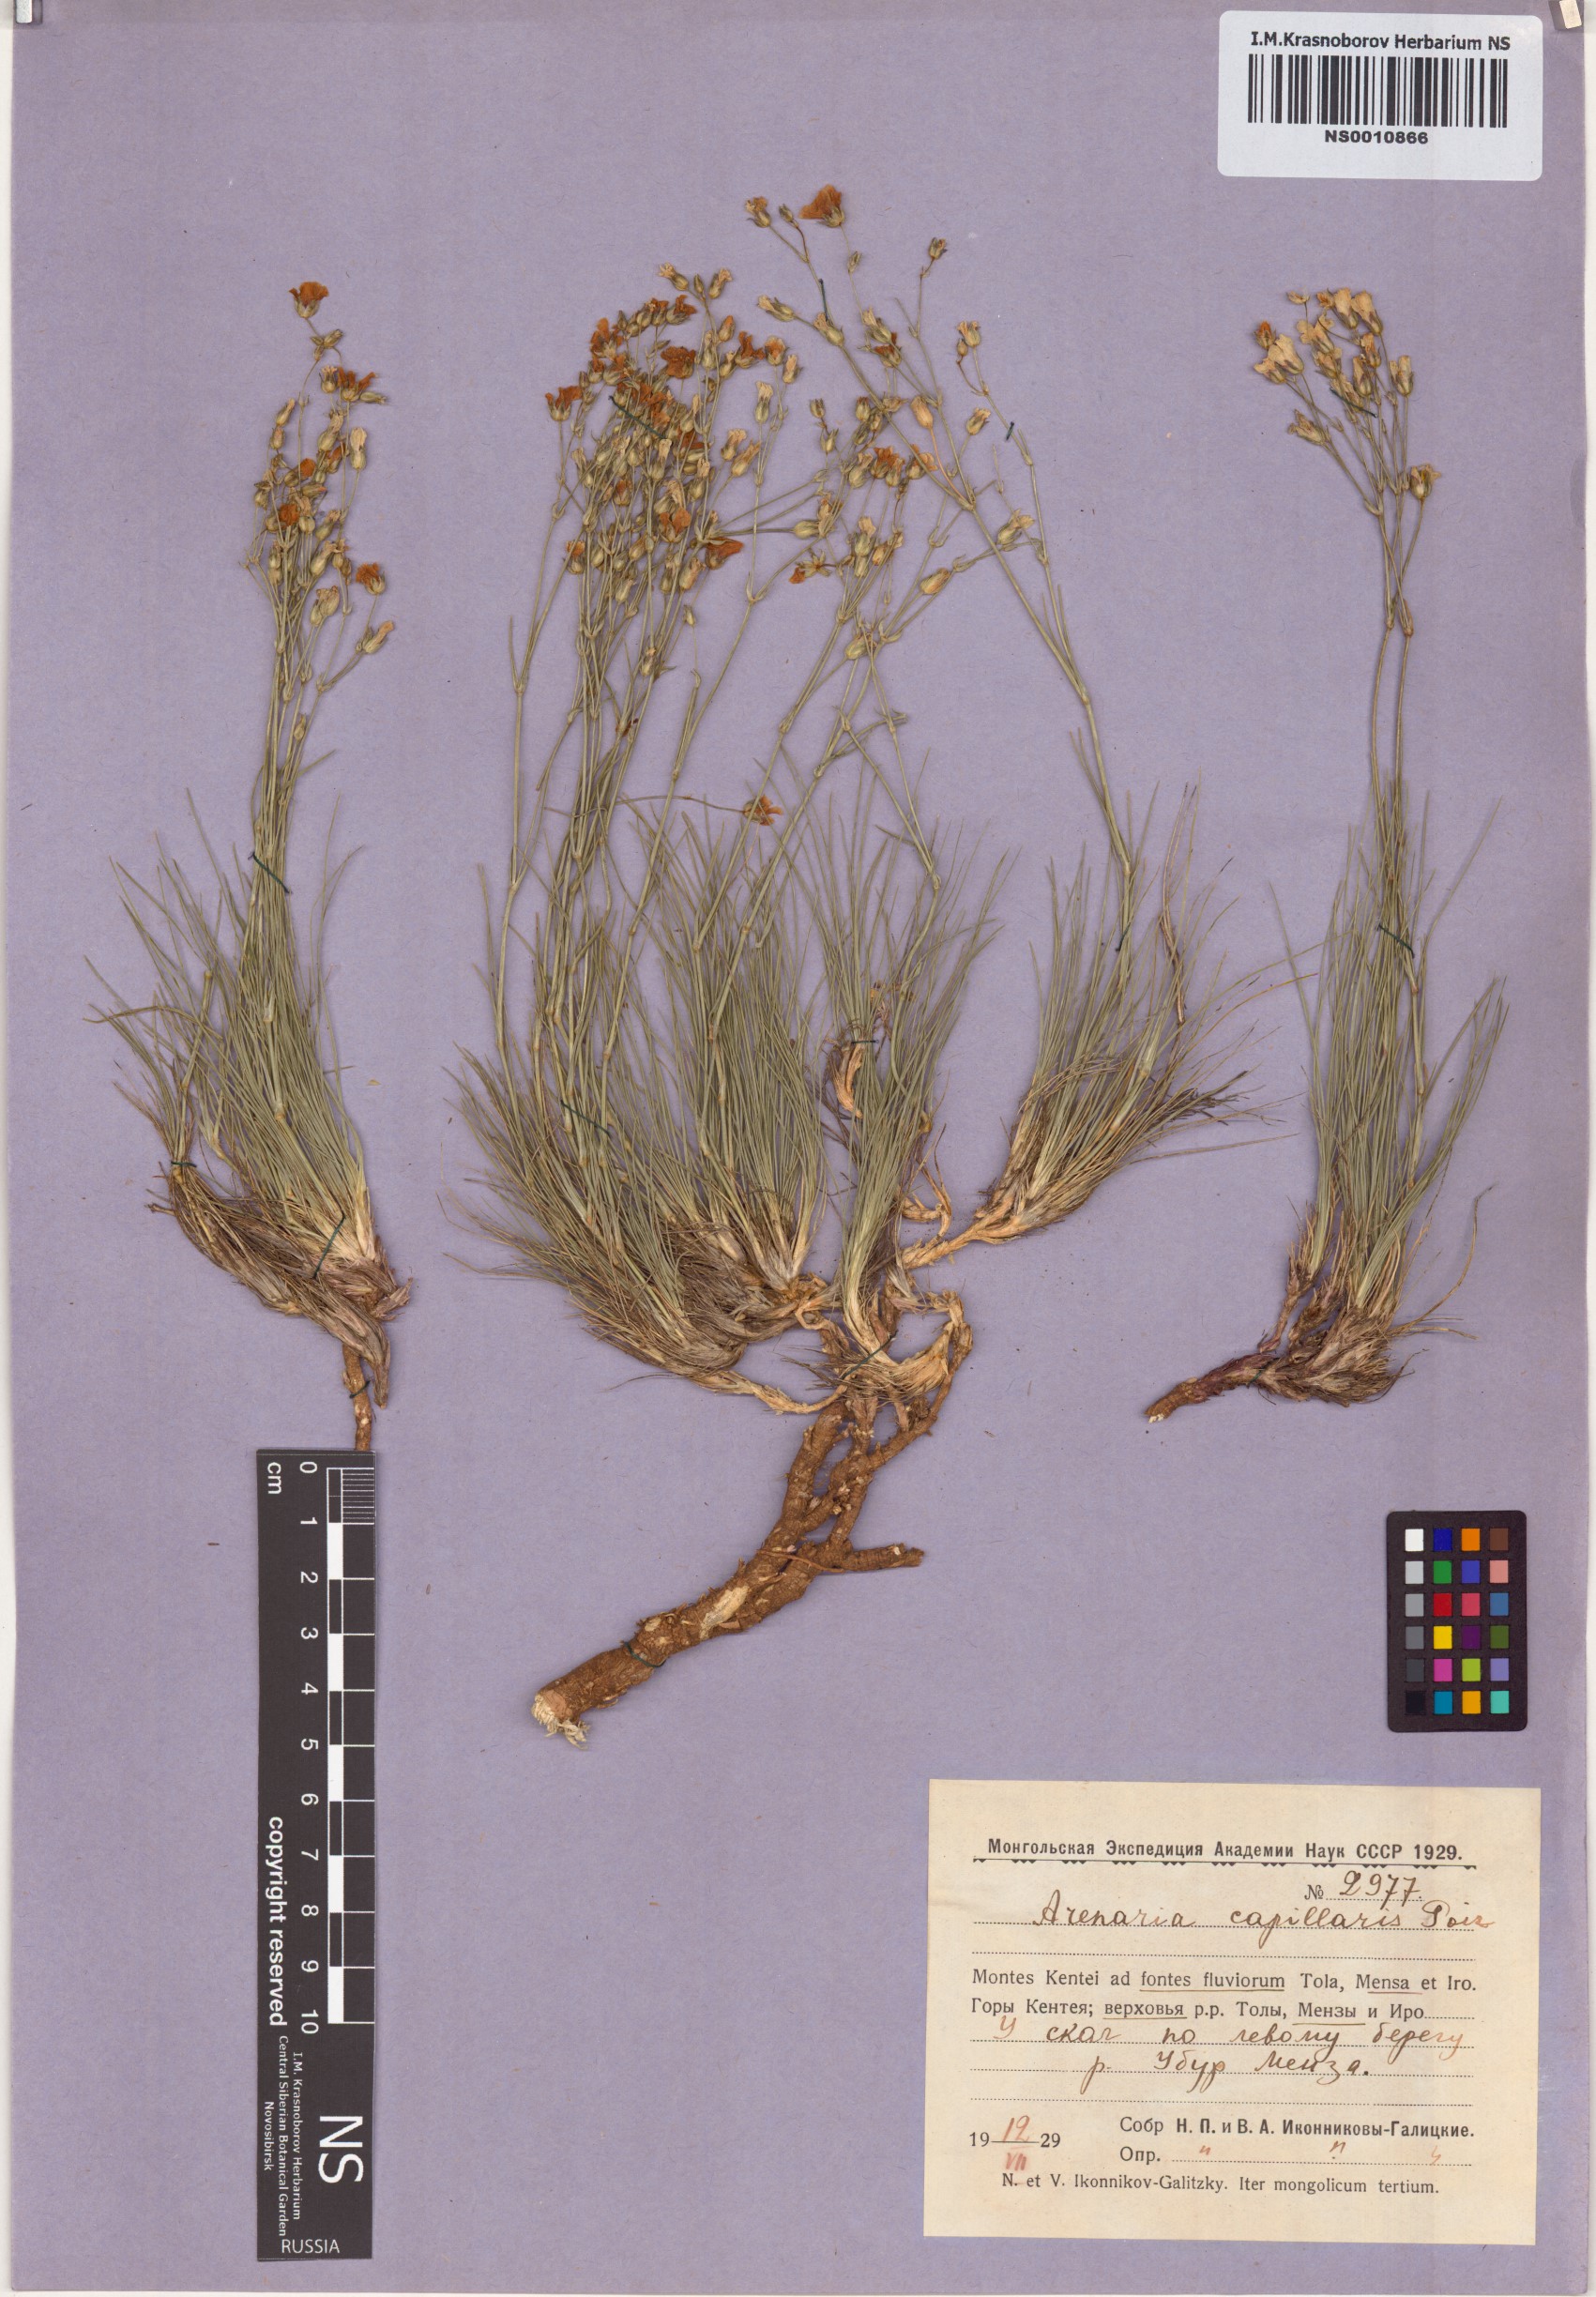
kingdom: Plantae
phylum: Tracheophyta
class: Magnoliopsida
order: Caryophyllales
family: Caryophyllaceae
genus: Eremogone
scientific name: Eremogone capillaris
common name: Slender mountain sandwort
